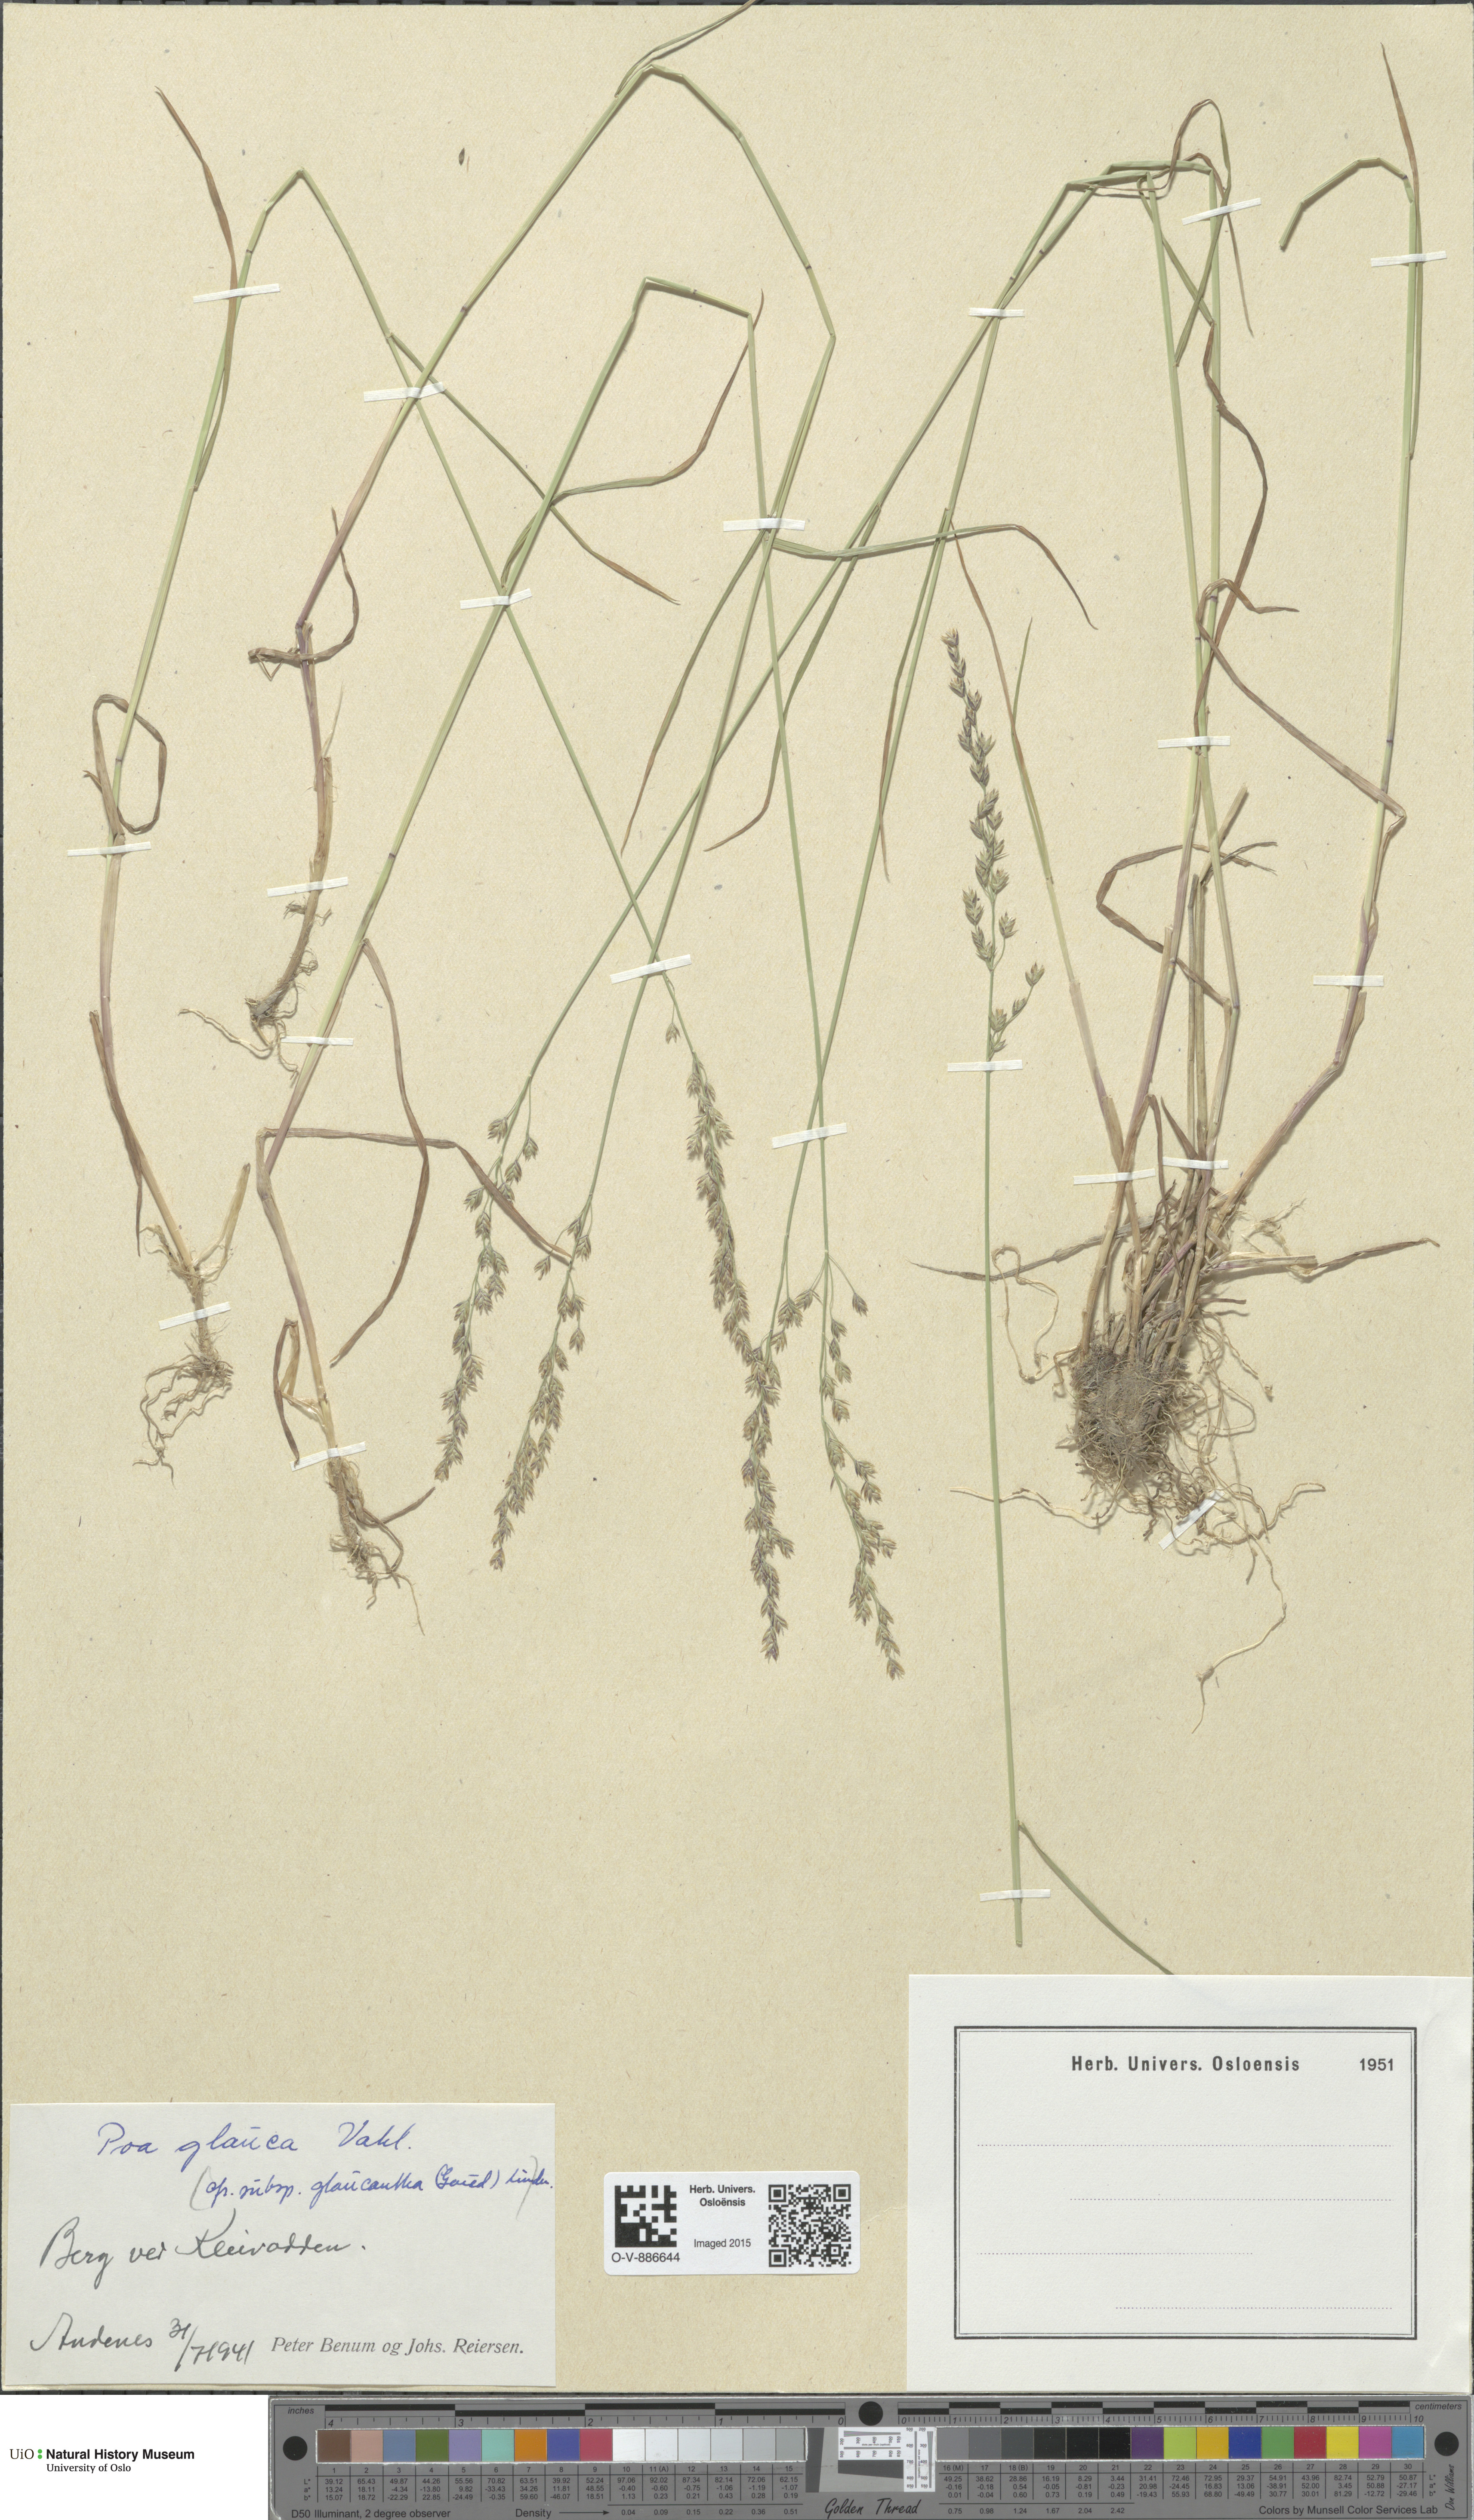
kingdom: Plantae
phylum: Tracheophyta
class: Liliopsida
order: Poales
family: Poaceae
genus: Poa
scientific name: Poa glauca
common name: Glaucous bluegrass
